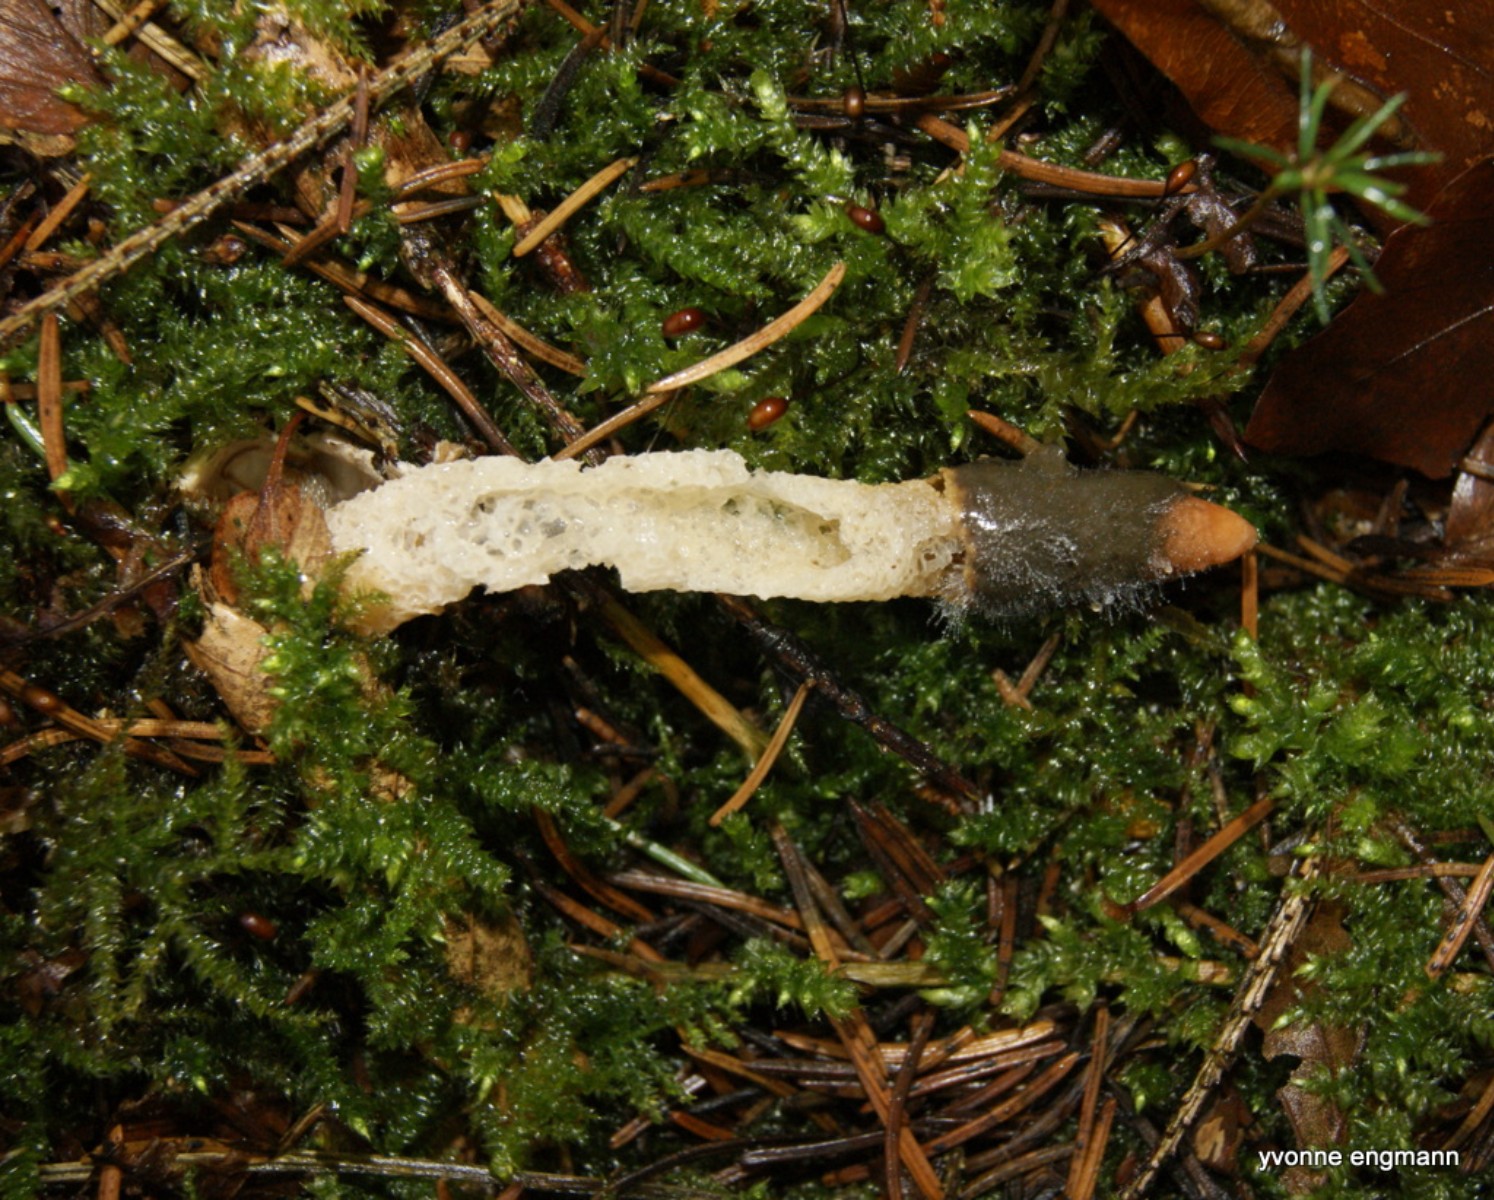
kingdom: Fungi
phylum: Basidiomycota
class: Agaricomycetes
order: Phallales
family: Phallaceae
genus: Mutinus
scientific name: Mutinus caninus
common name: hunde-stinksvamp
